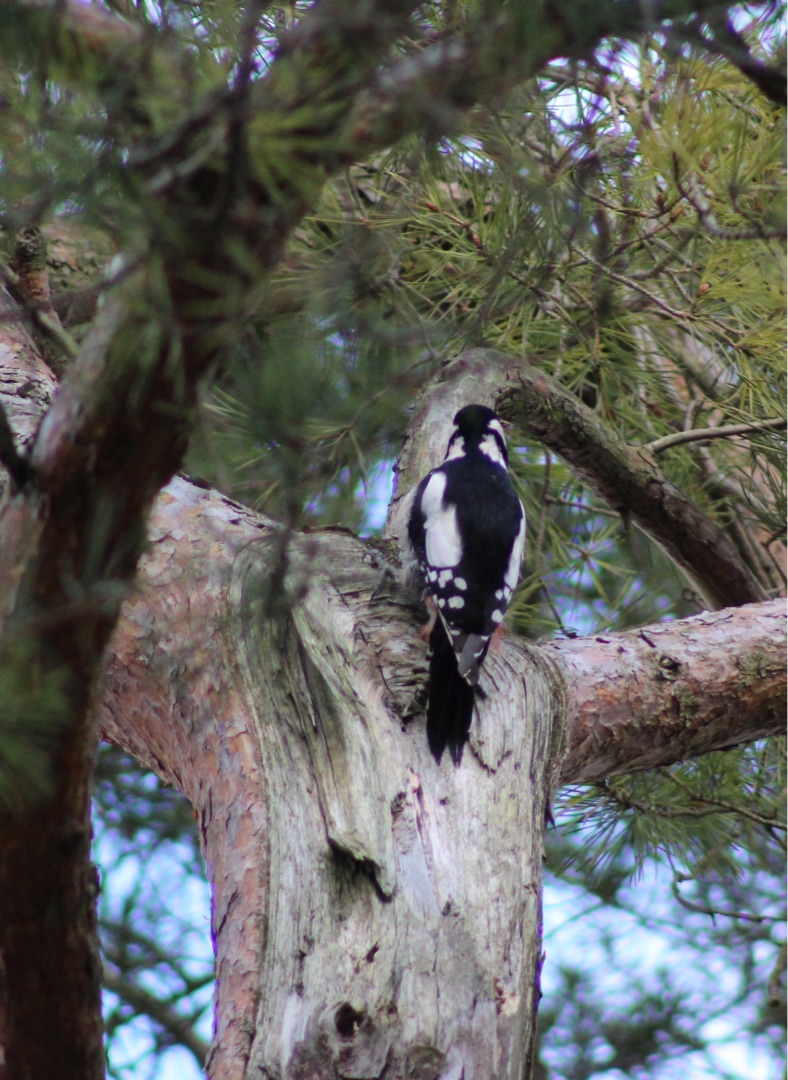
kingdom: Animalia
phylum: Chordata
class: Aves
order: Piciformes
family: Picidae
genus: Dendrocopos
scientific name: Dendrocopos major
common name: Stor flagspætte
